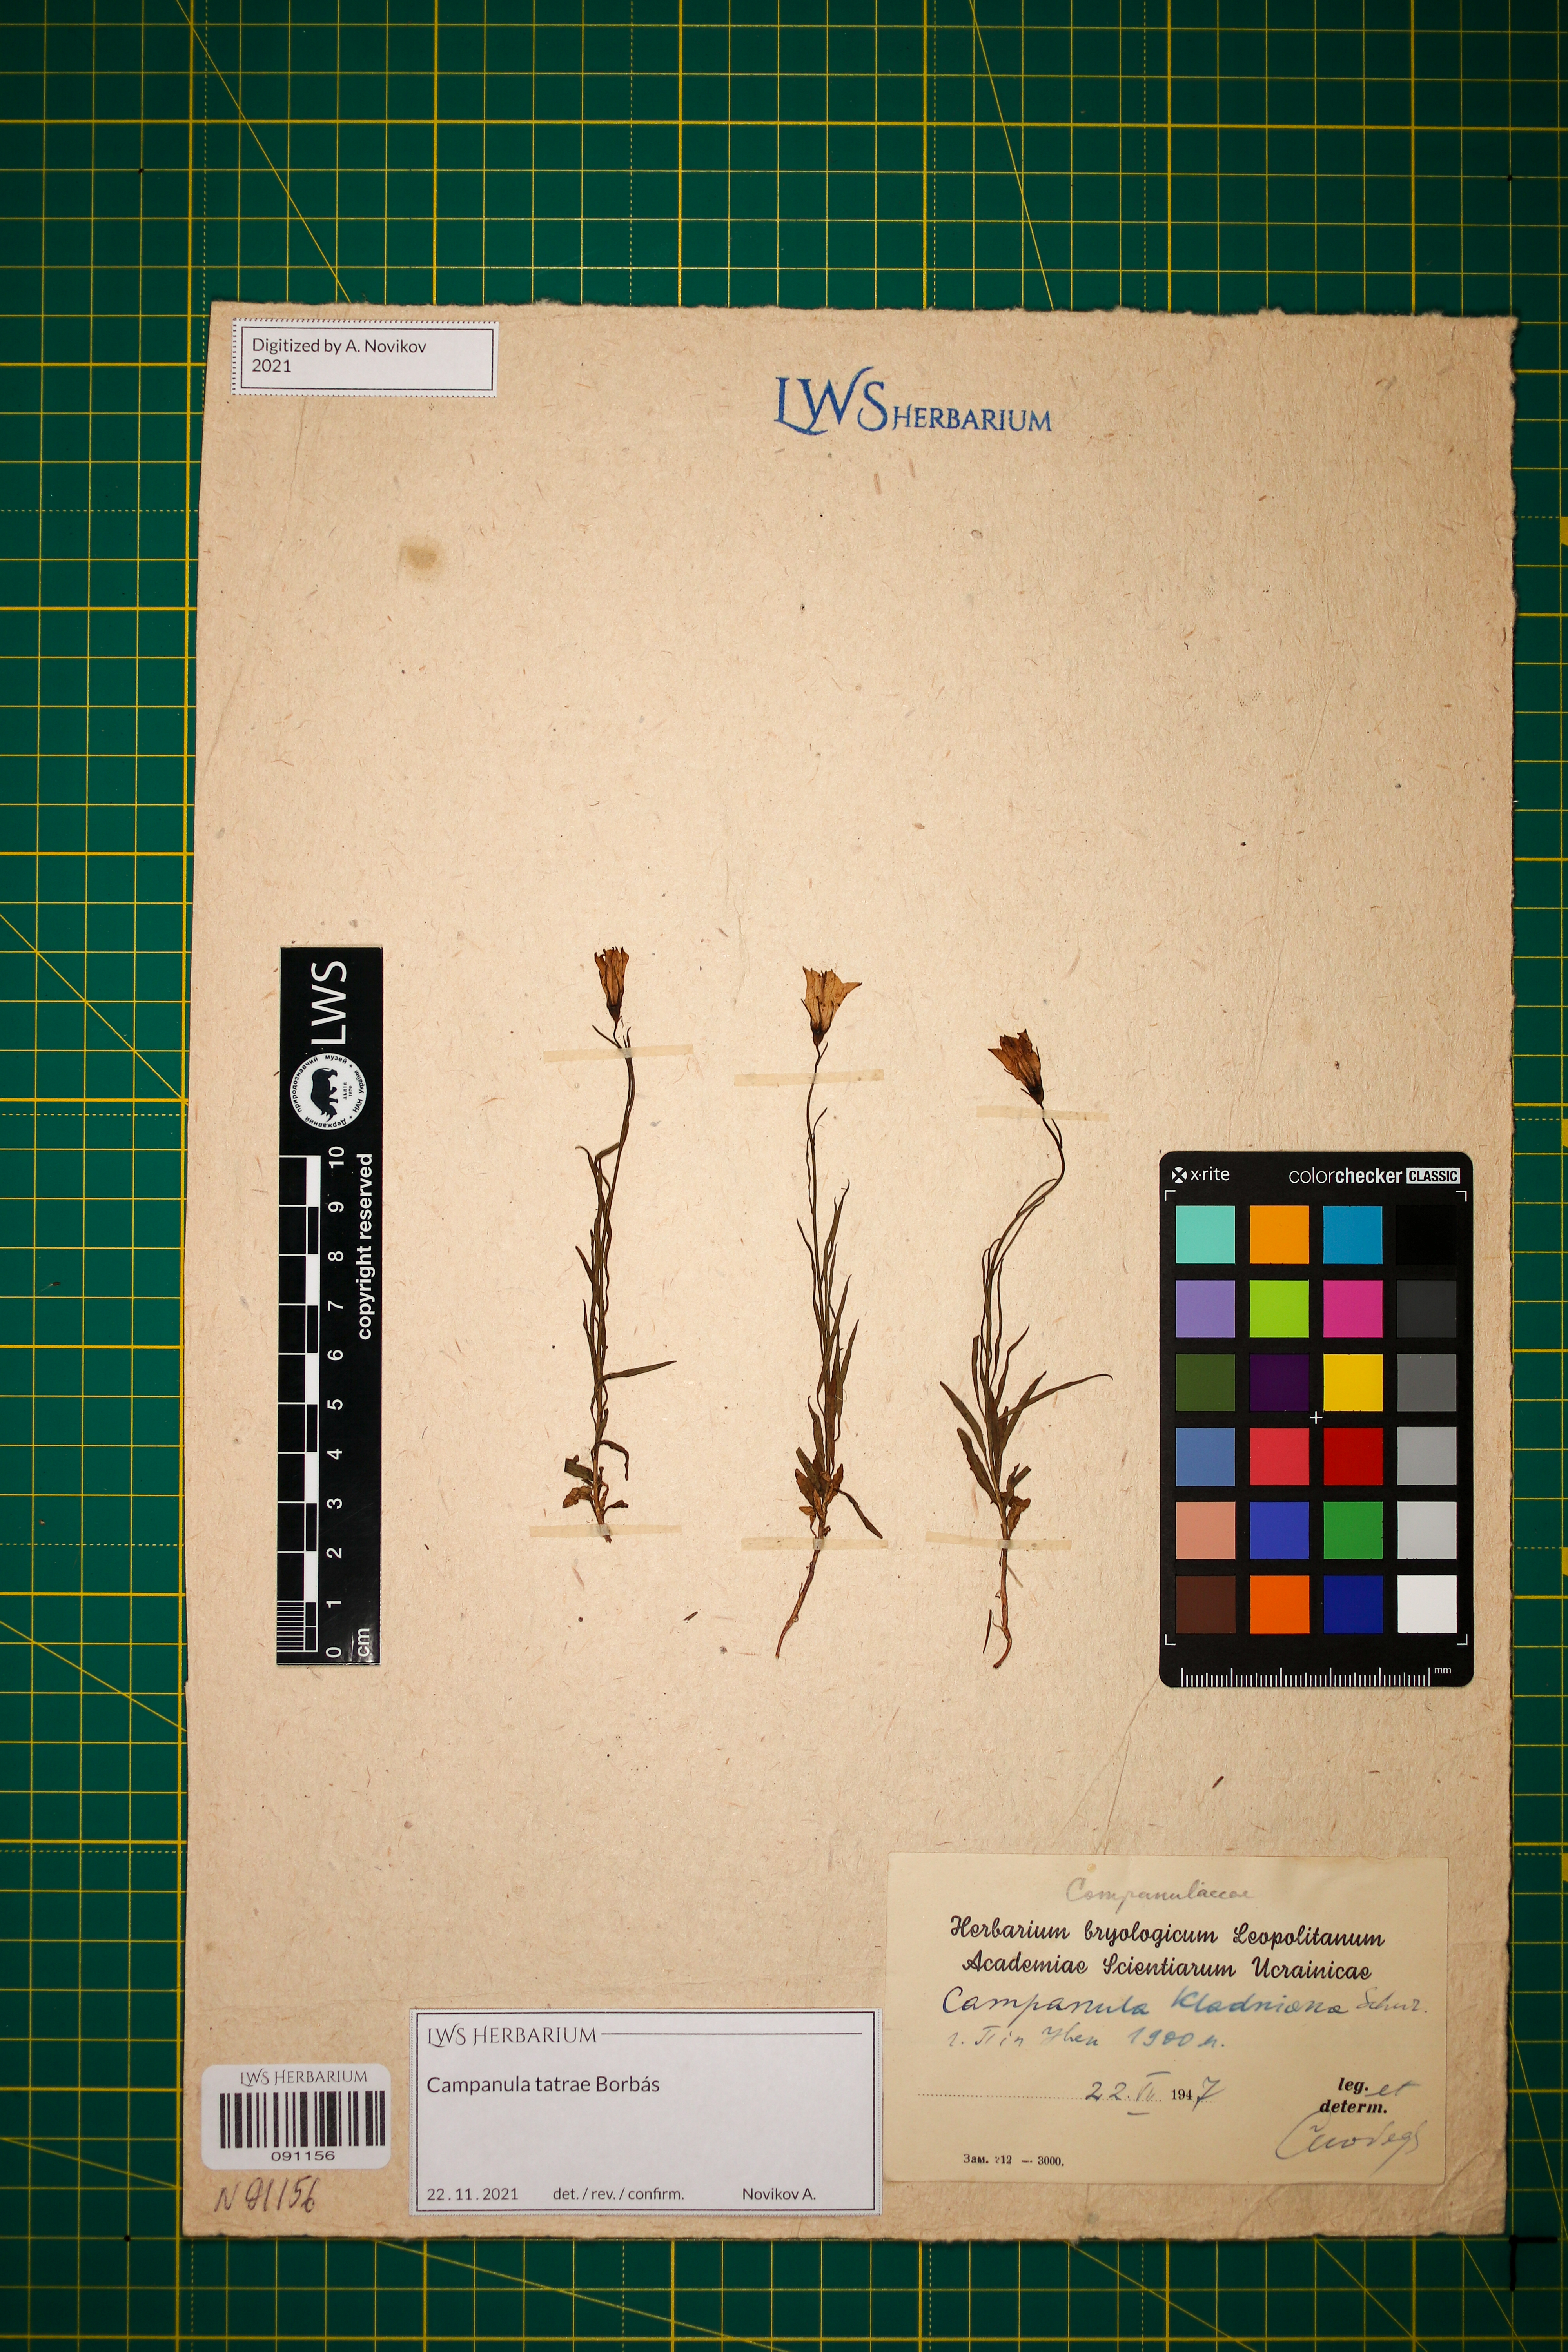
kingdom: Plantae
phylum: Tracheophyta
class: Magnoliopsida
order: Asterales
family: Campanulaceae
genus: Campanula
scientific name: Campanula kladniana
